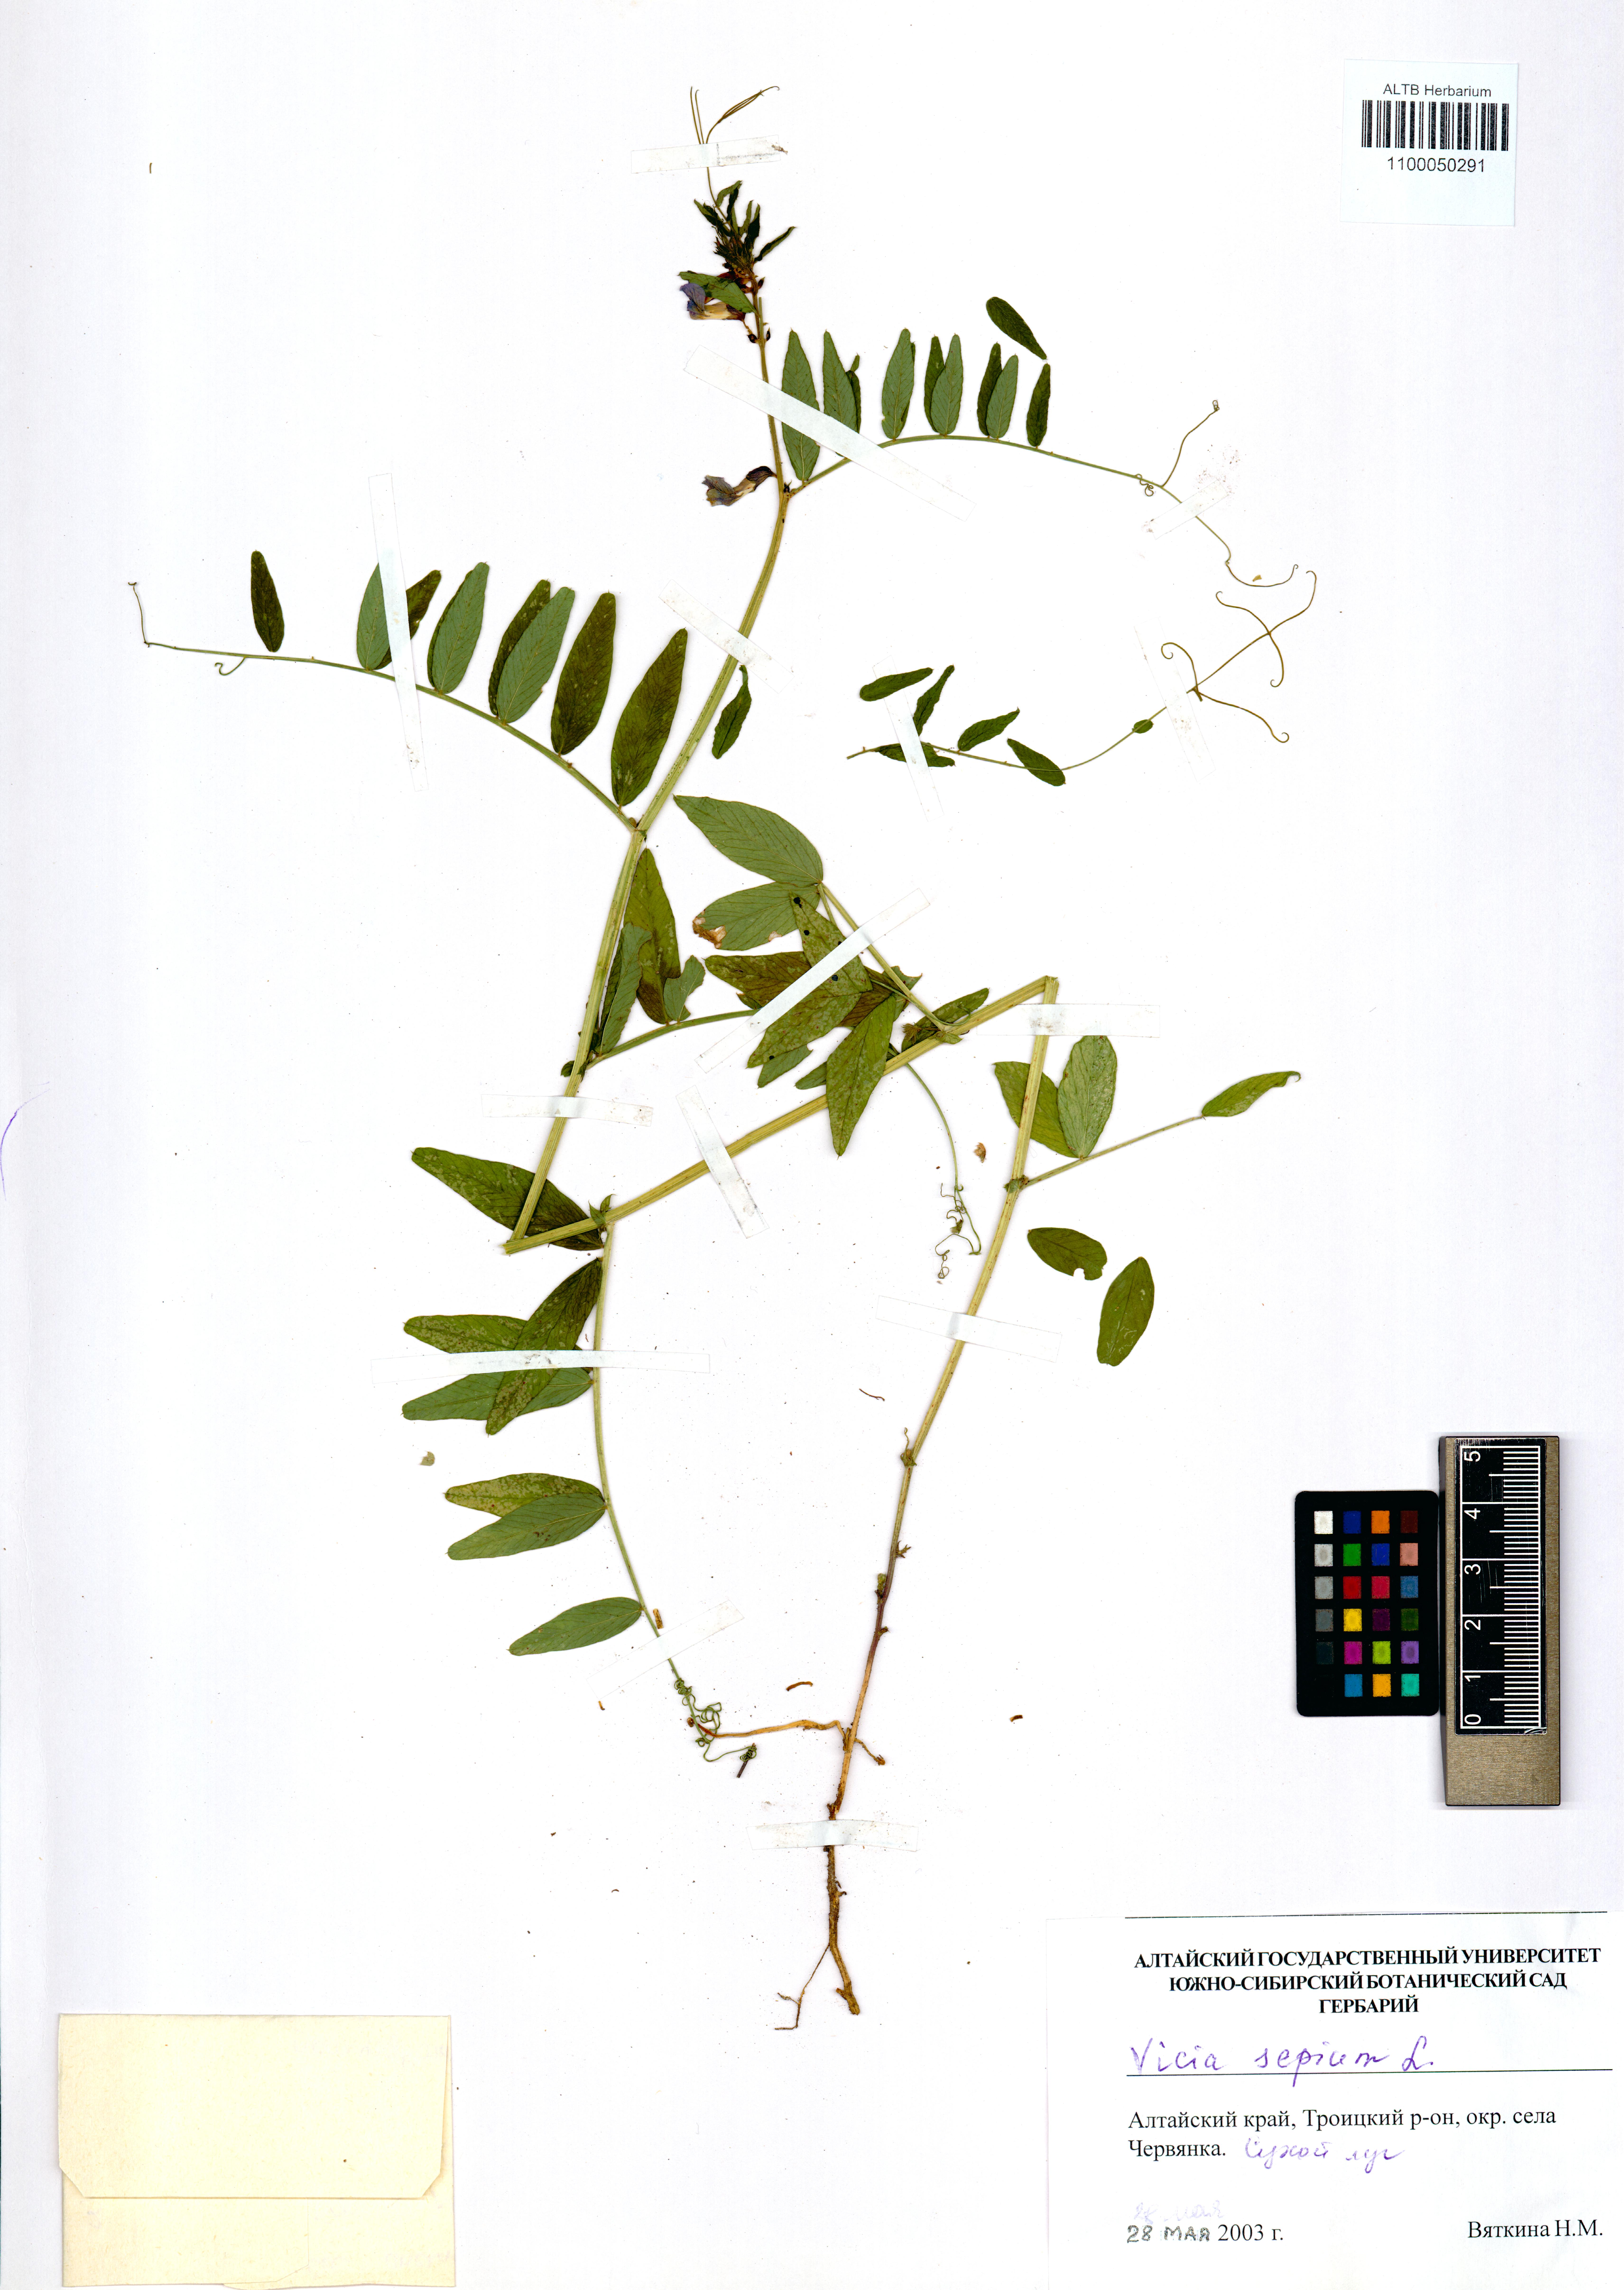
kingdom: Plantae
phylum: Tracheophyta
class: Magnoliopsida
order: Fabales
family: Fabaceae
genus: Vicia
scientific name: Vicia sepium
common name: Bush vetch
